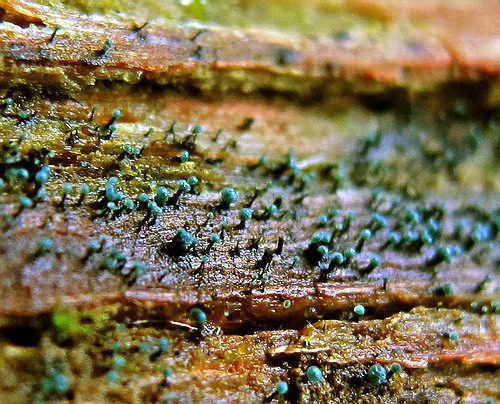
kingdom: Fungi
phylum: Ascomycota
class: Leotiomycetes
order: Leotiales
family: Tympanidaceae
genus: Dendrostilbella
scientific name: Dendrostilbella smaragdina
